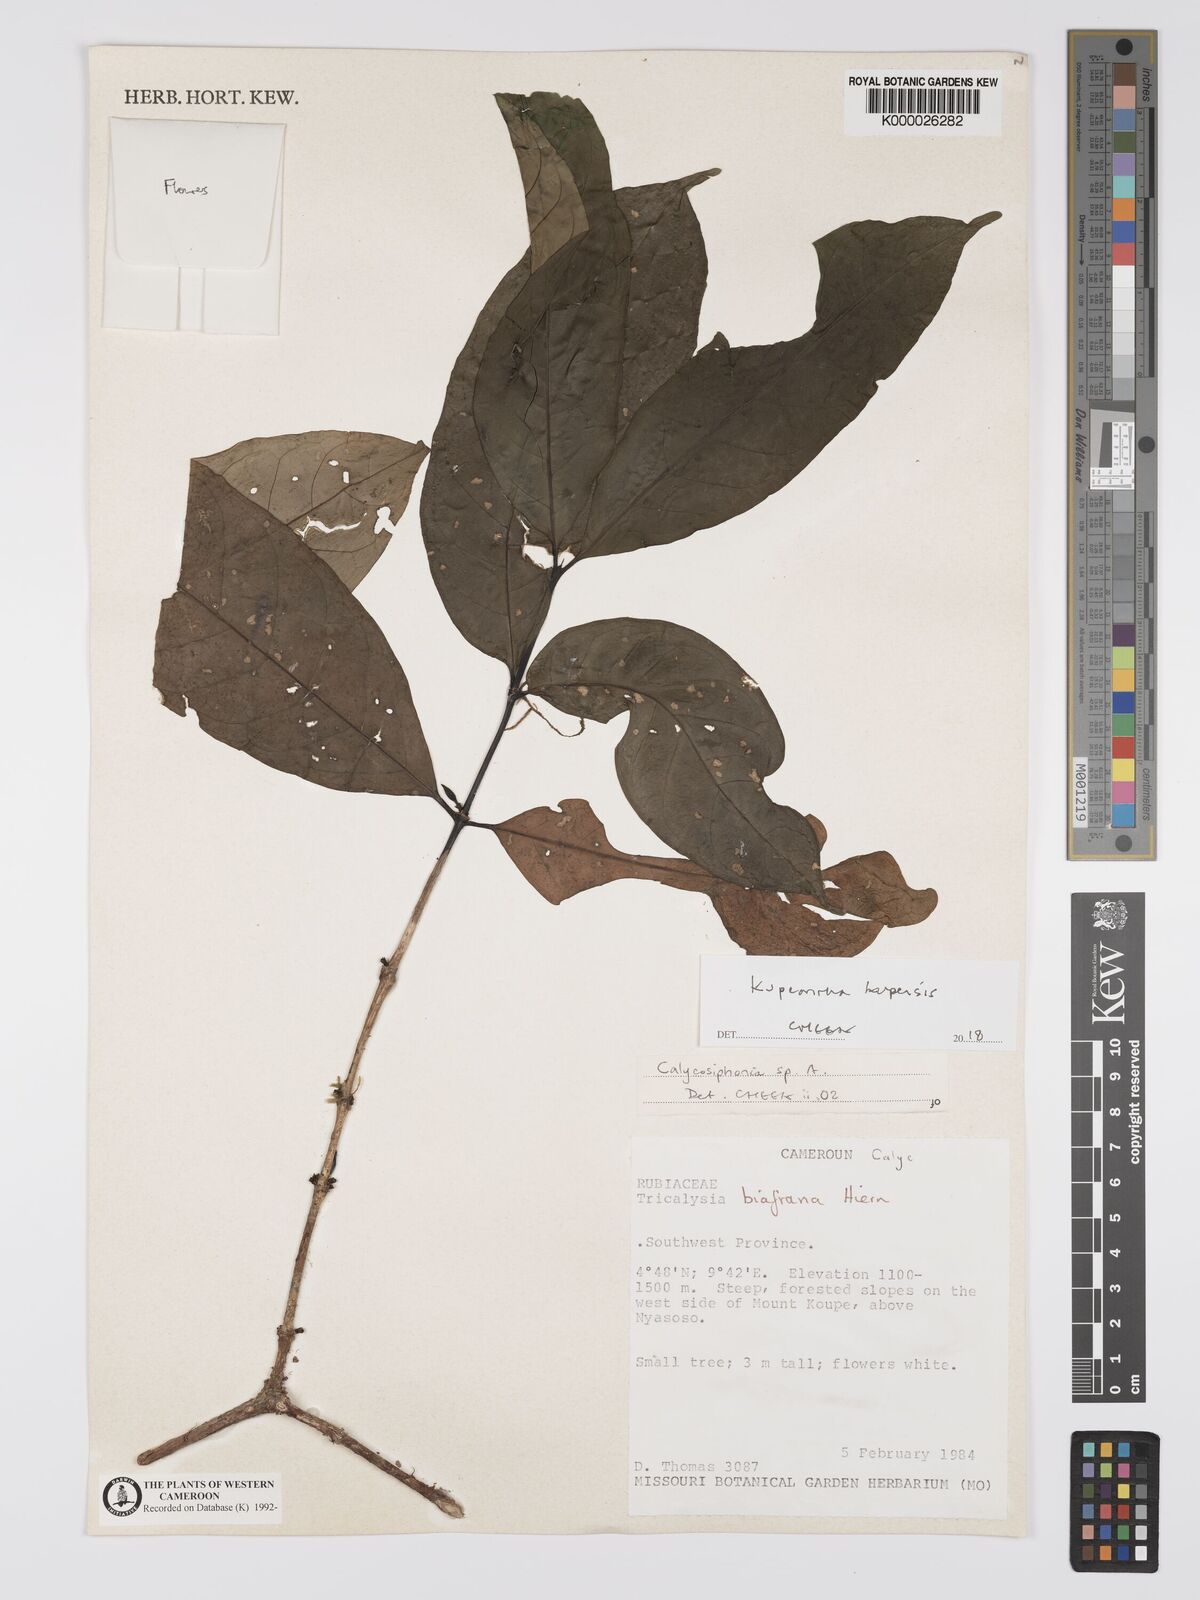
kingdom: Plantae
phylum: Tracheophyta
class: Magnoliopsida
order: Gentianales
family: Rubiaceae
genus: Argocoffeopsis
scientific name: Argocoffeopsis eketensis
